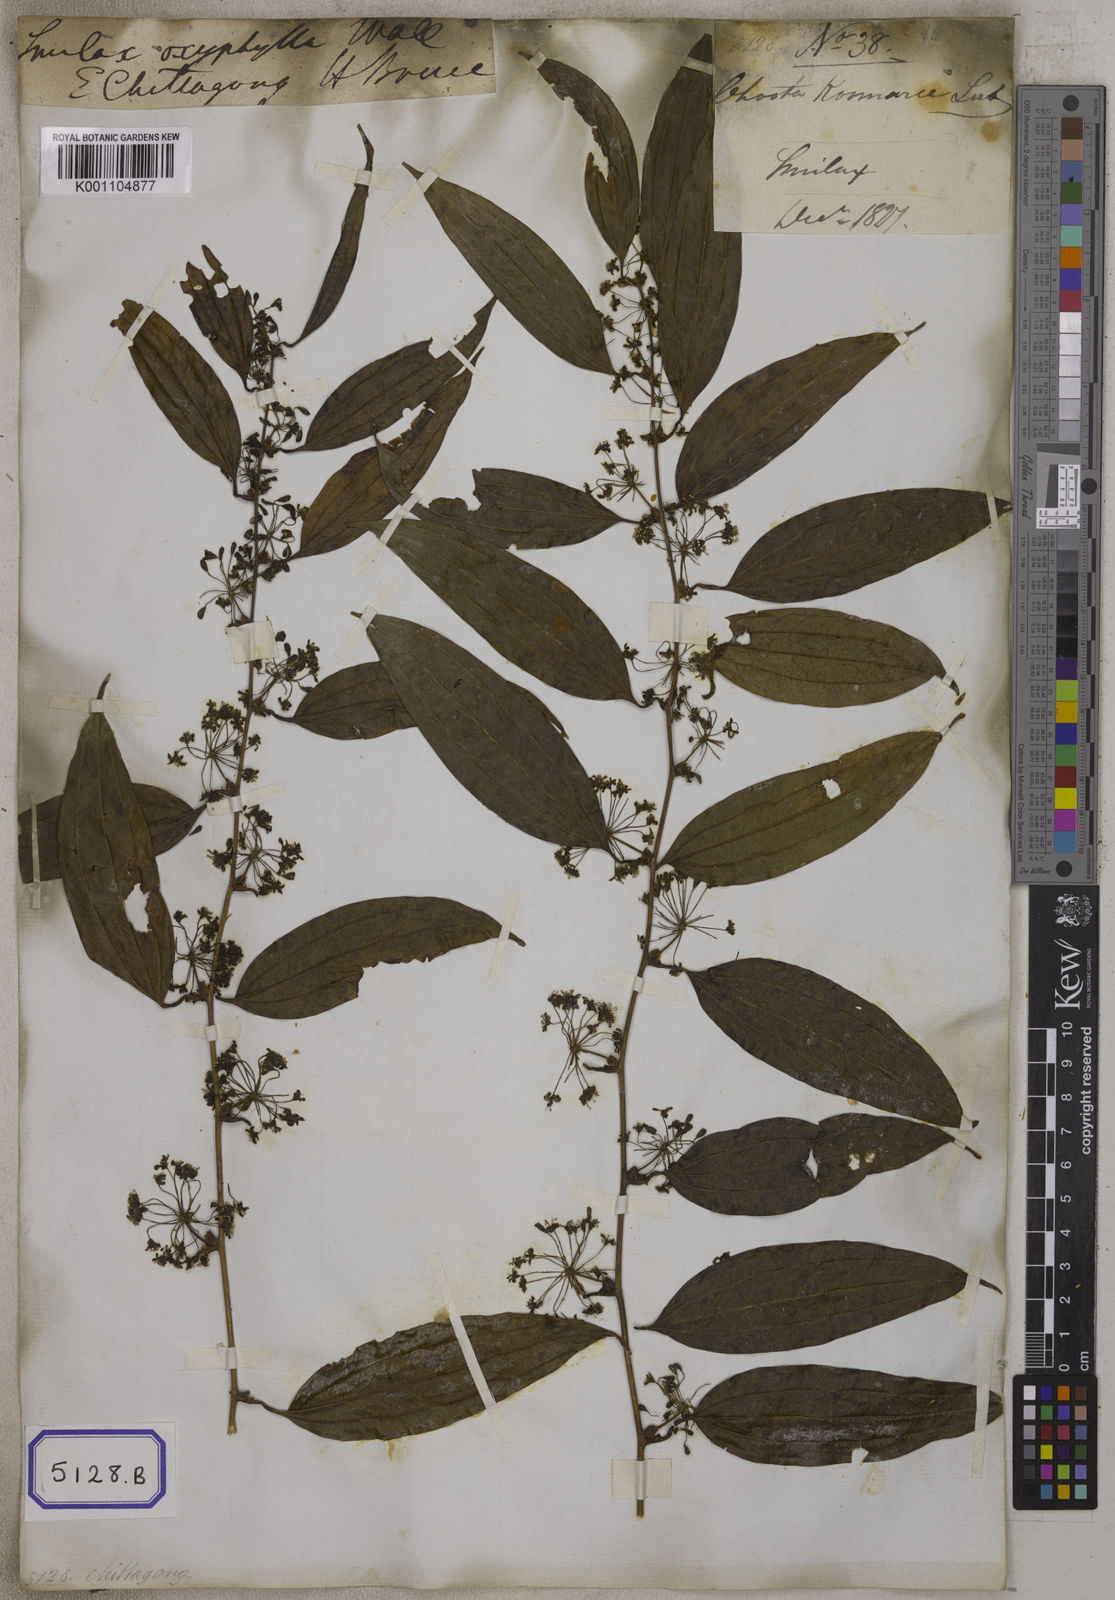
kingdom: Plantae
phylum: Tracheophyta
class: Liliopsida
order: Liliales
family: Smilacaceae
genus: Smilax
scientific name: Smilax
